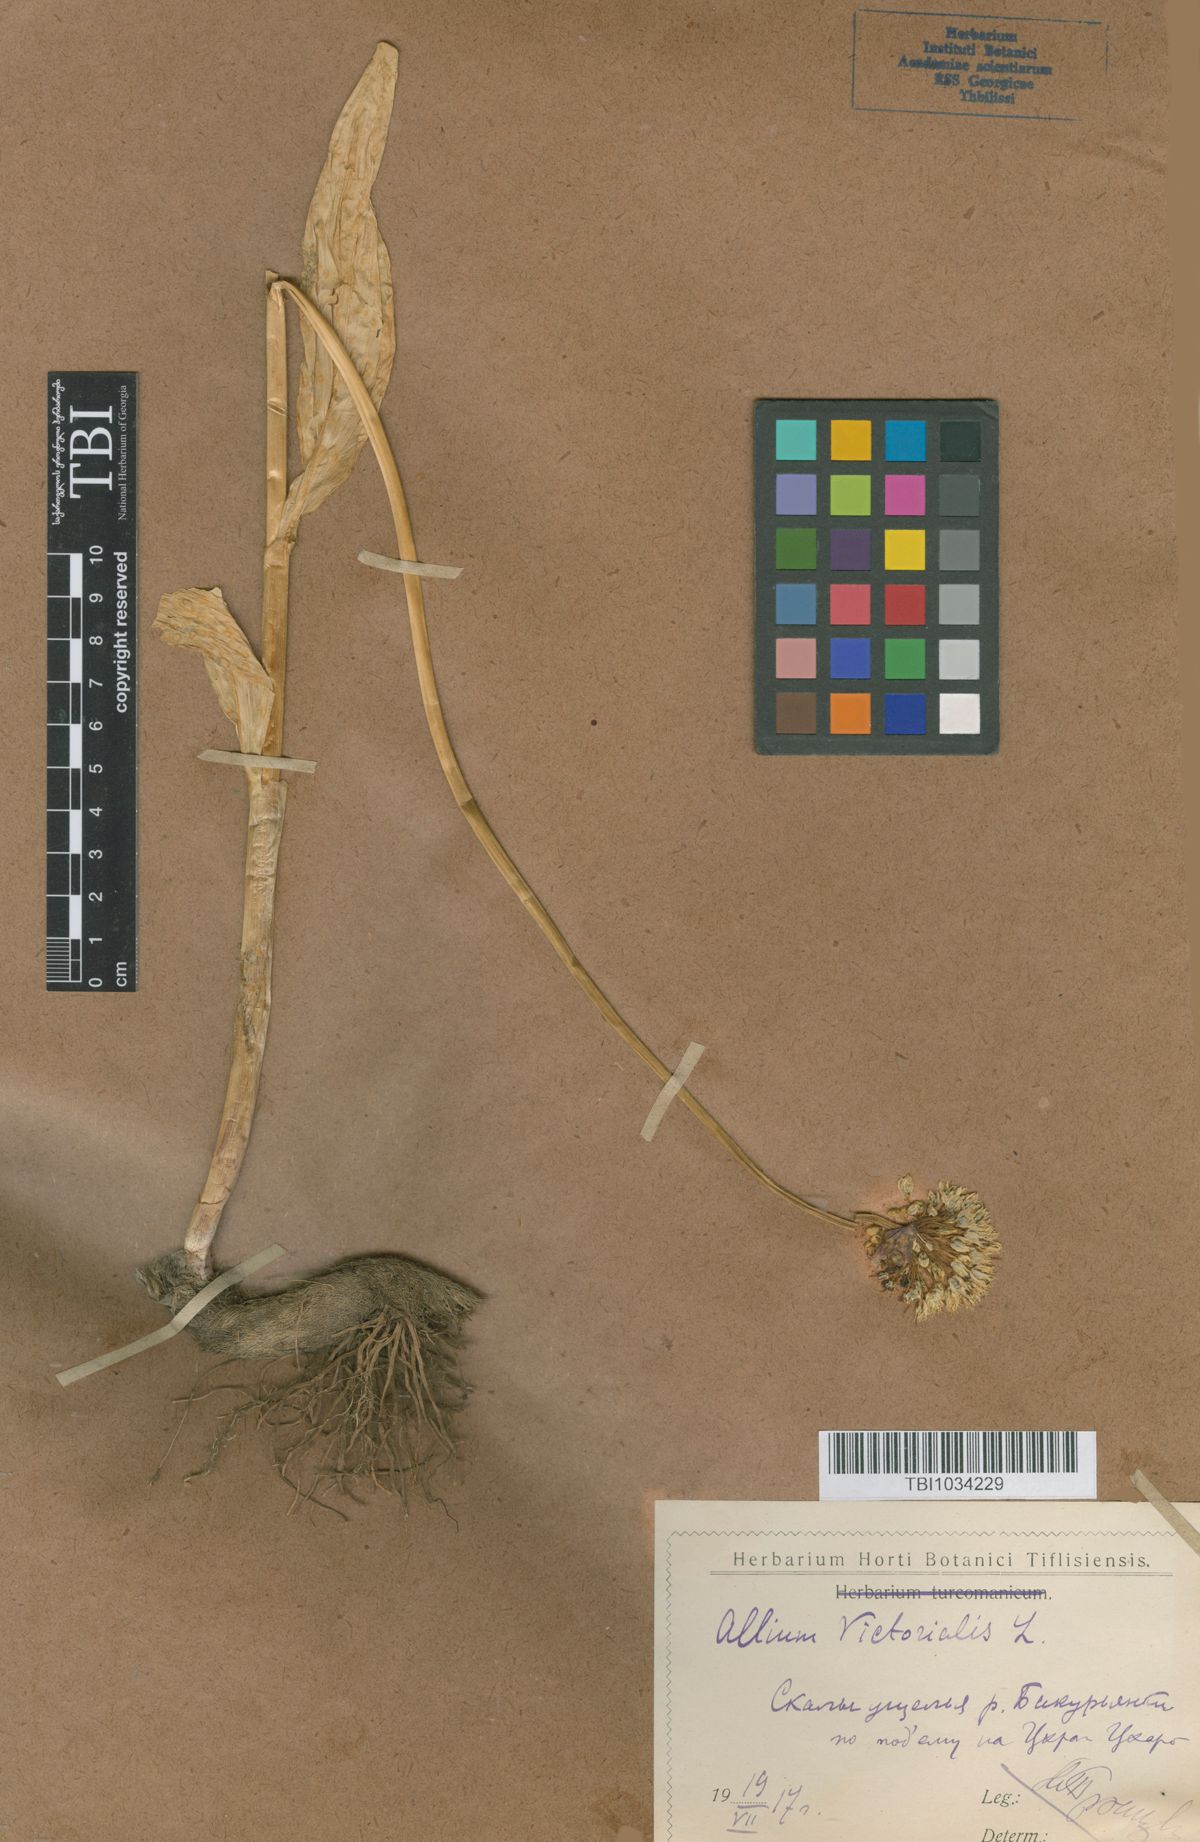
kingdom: Plantae
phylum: Tracheophyta
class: Liliopsida
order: Asparagales
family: Amaryllidaceae
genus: Allium
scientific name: Allium victorialis
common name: Alpine leek
